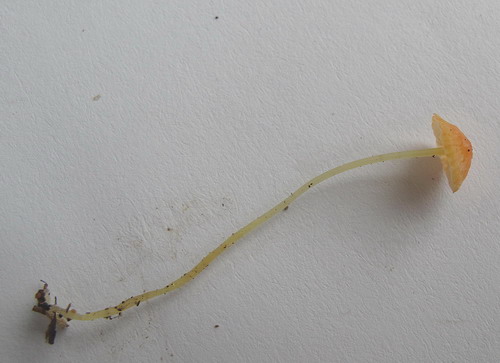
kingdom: Fungi
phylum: Basidiomycota
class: Agaricomycetes
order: Agaricales
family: Mycenaceae
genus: Mycena
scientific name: Mycena acicula
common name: orange huesvamp
